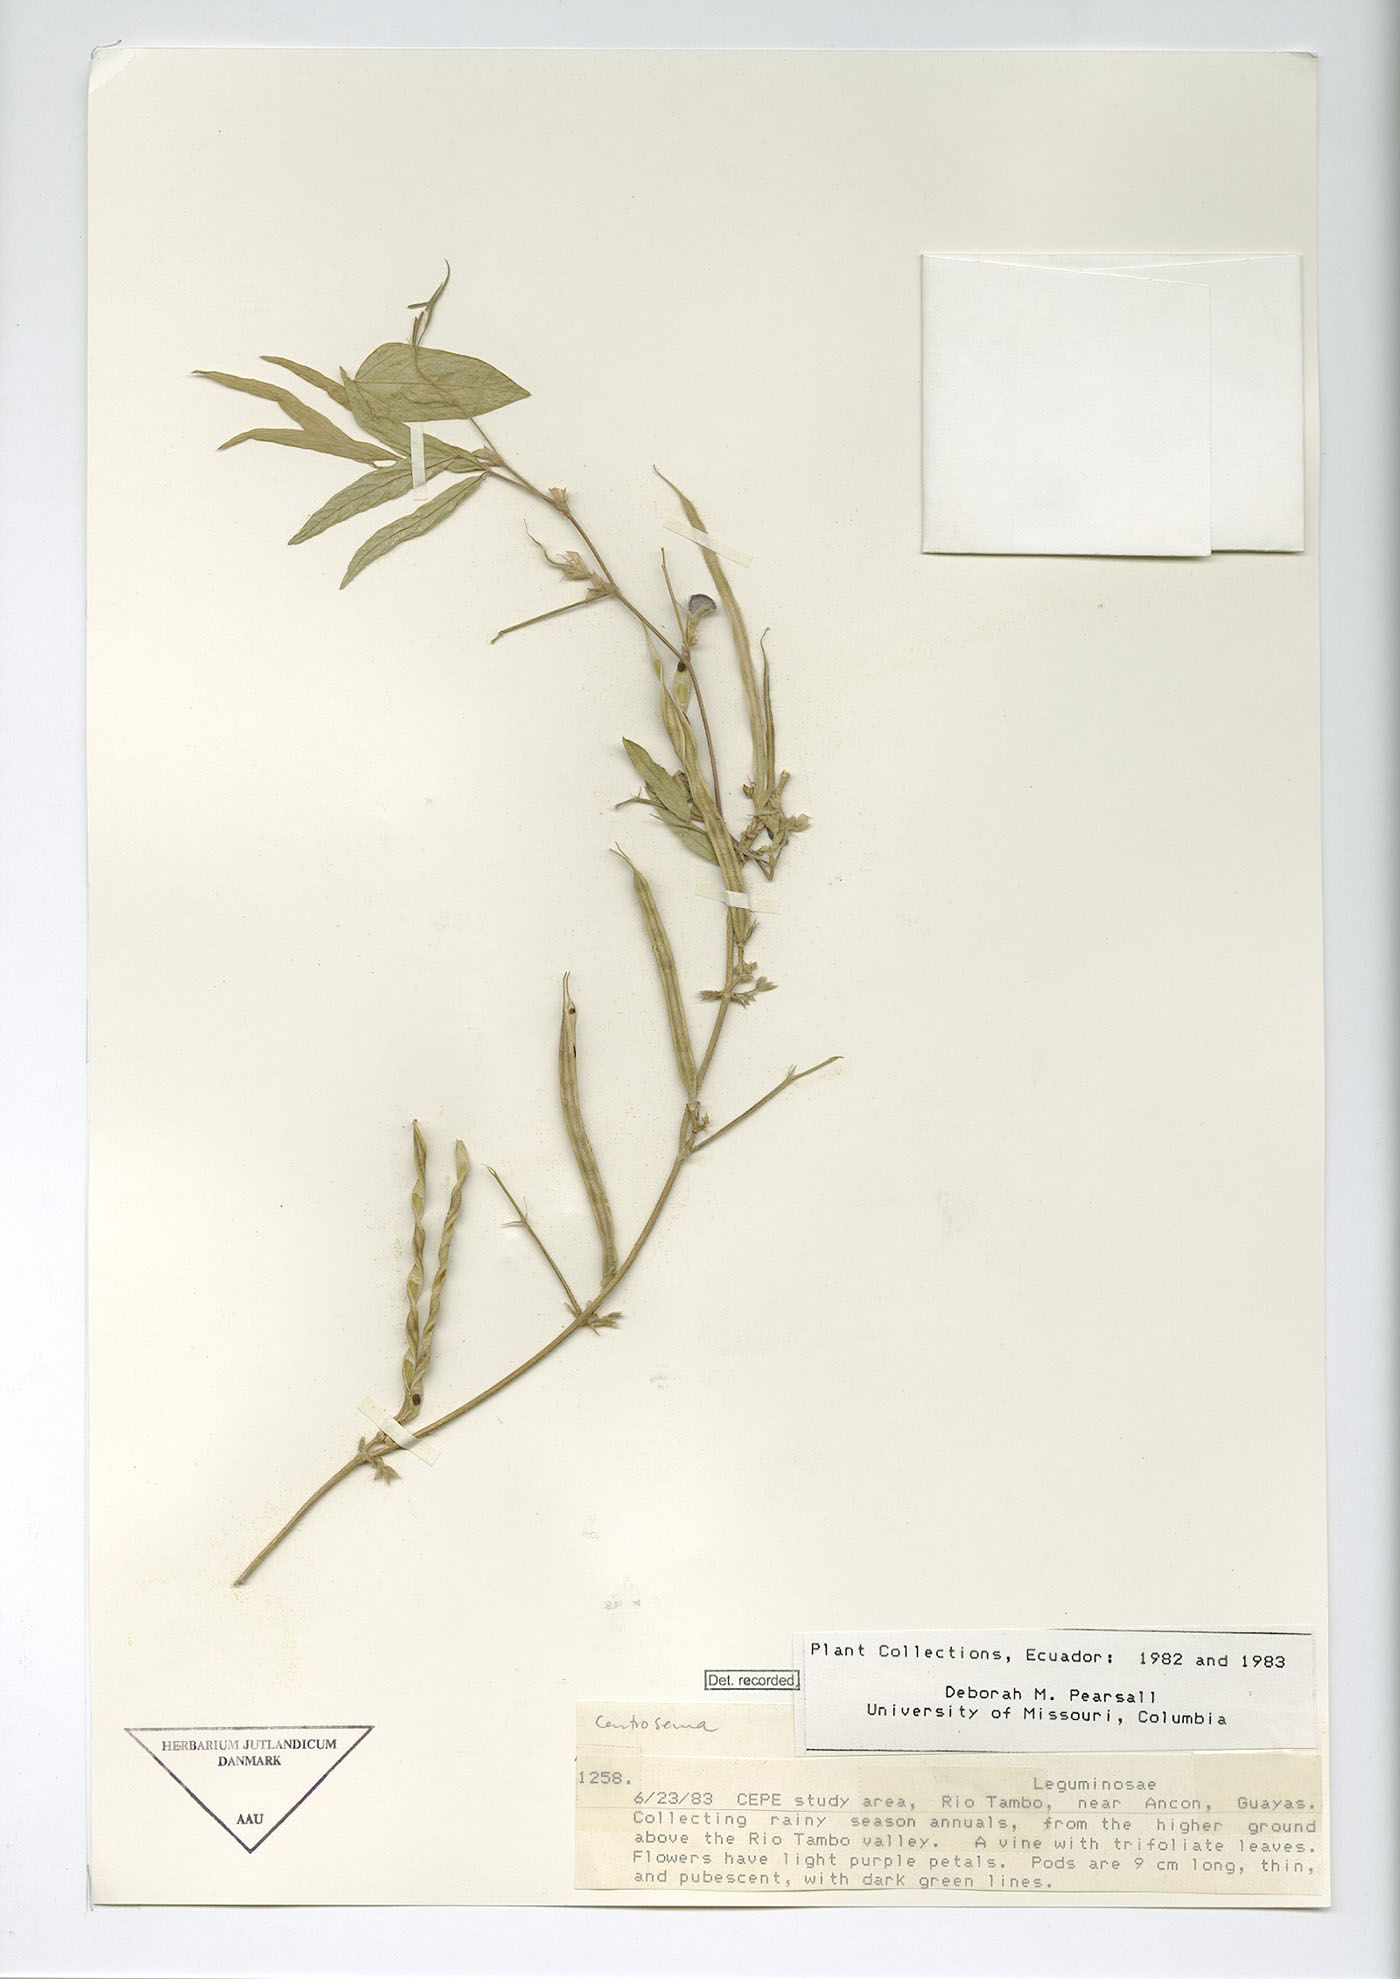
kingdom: Plantae
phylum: Tracheophyta
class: Magnoliopsida
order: Fabales
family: Fabaceae
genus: Centrosema
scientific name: Centrosema pascuorum
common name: Centurion
